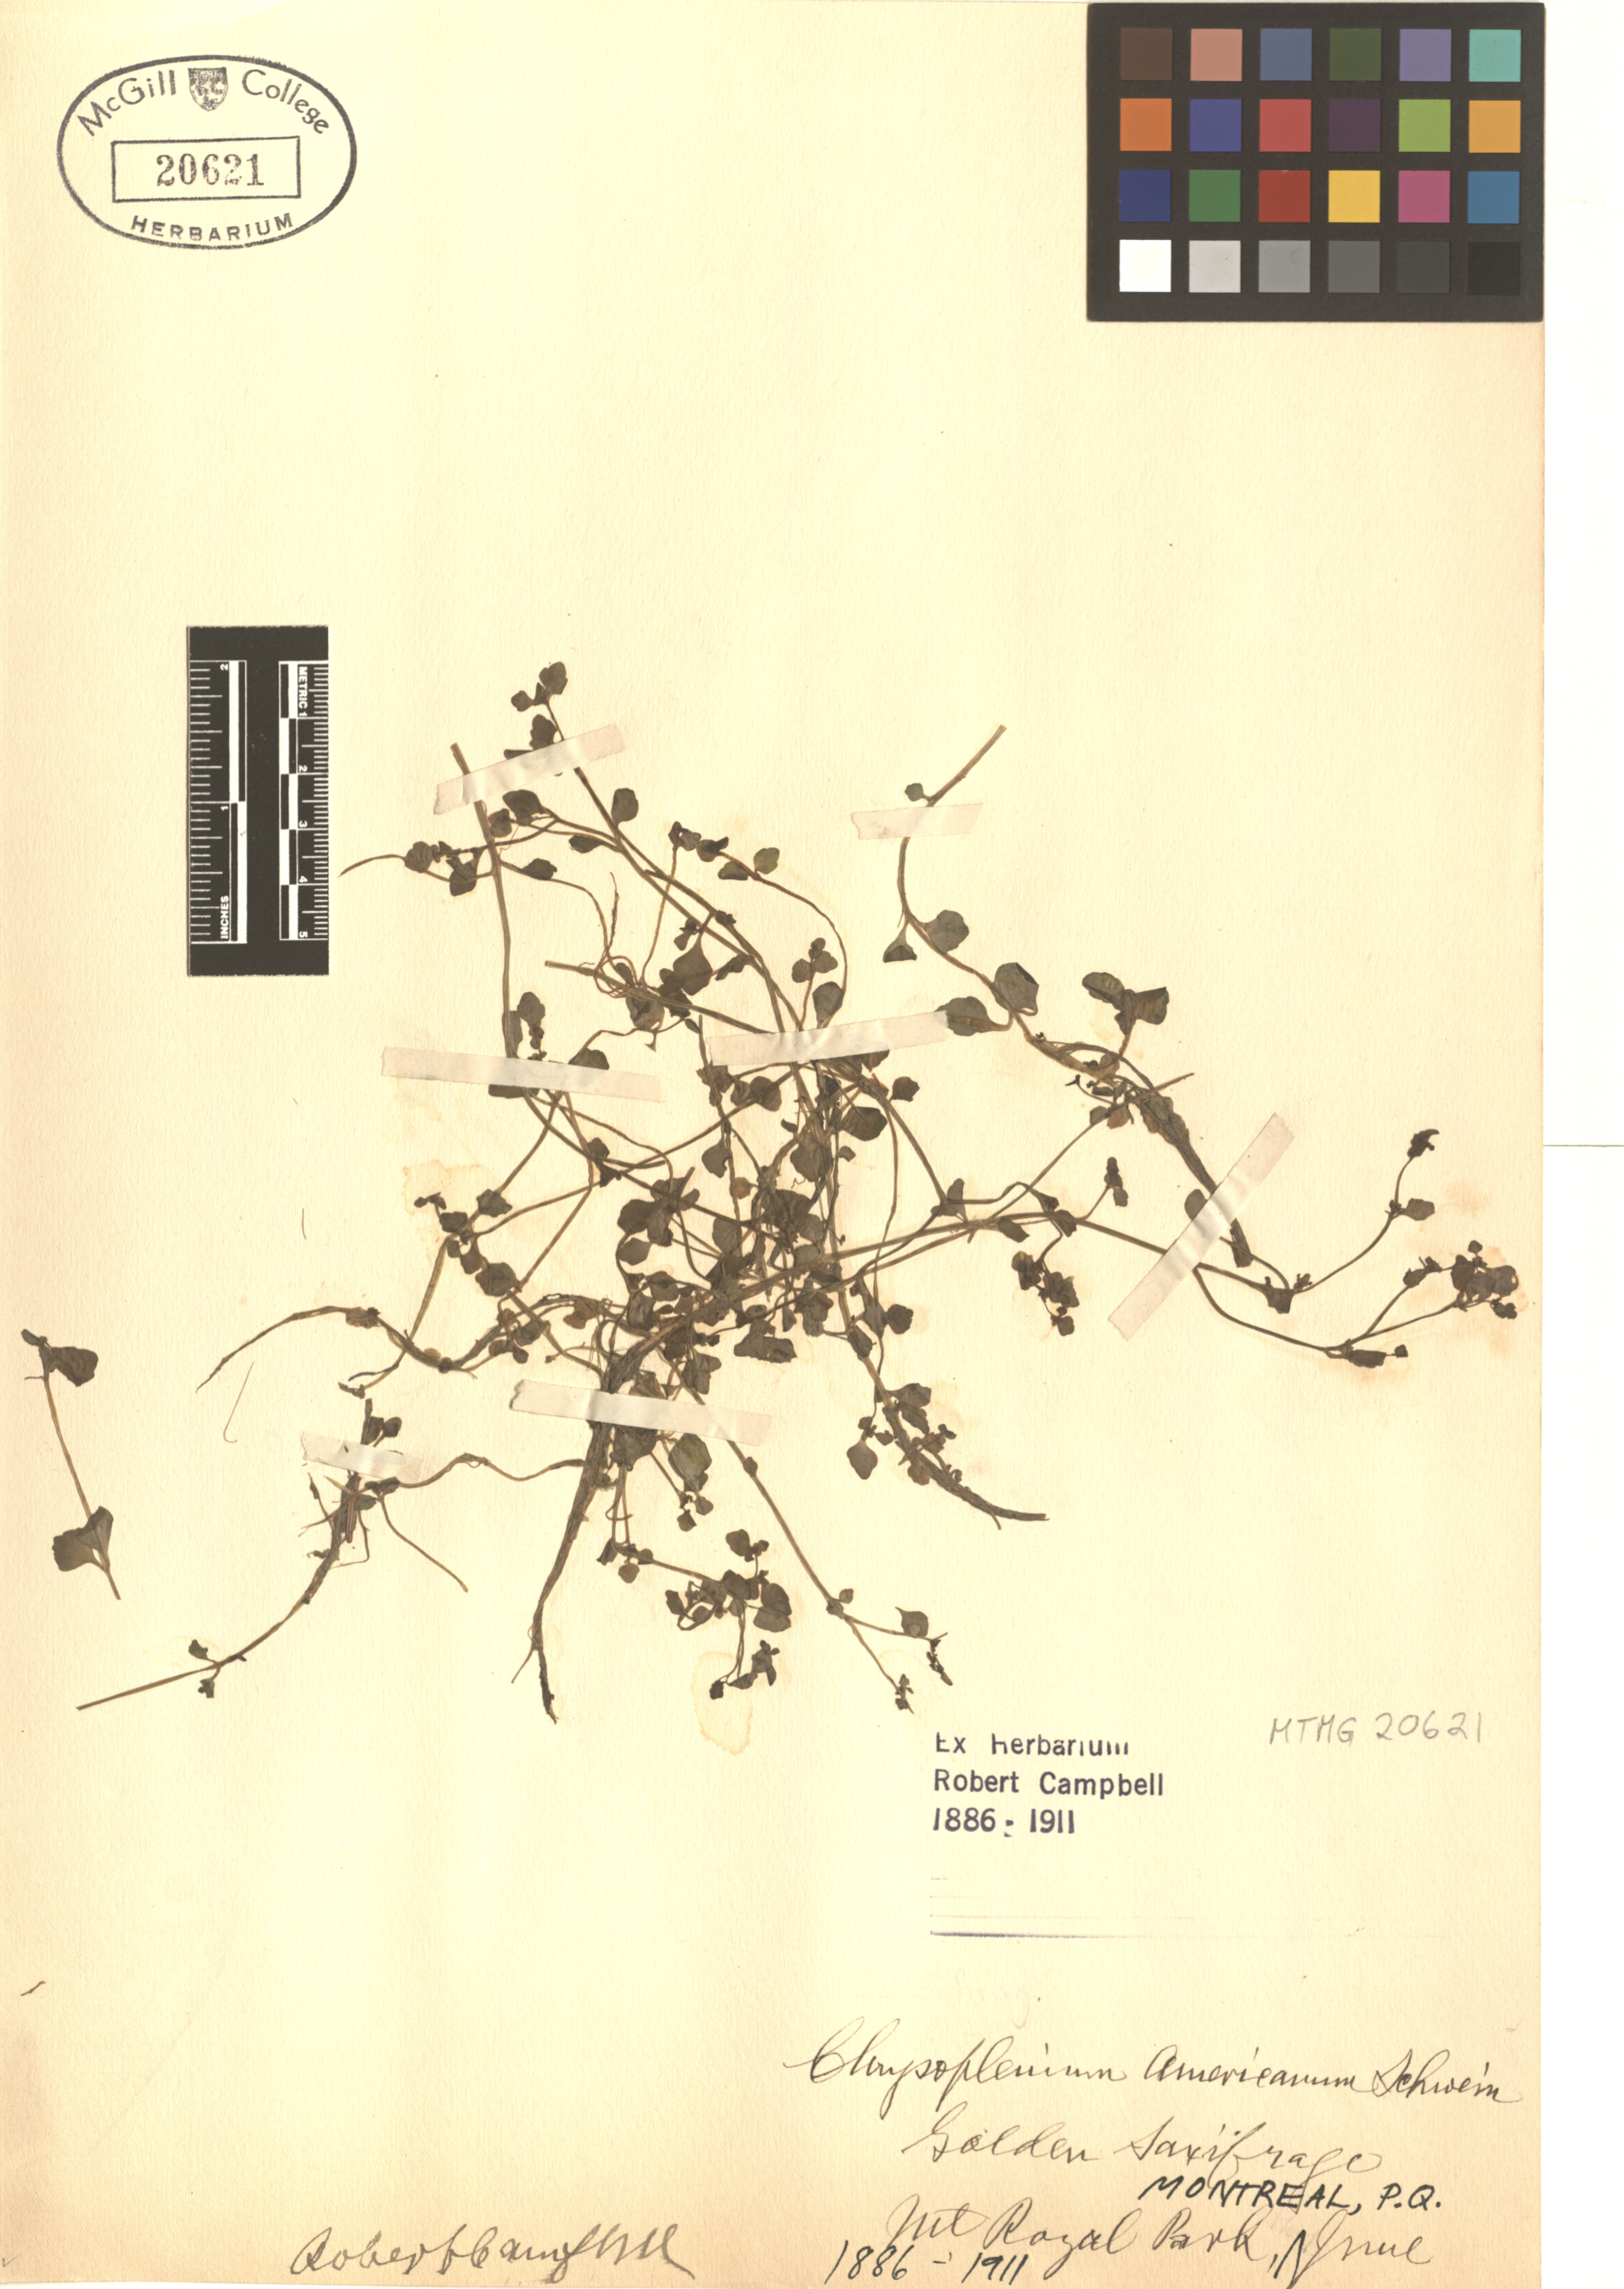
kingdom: Plantae
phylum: Tracheophyta
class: Magnoliopsida
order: Saxifragales
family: Saxifragaceae
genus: Chrysosplenium
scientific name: Chrysosplenium americanum
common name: American golden-saxifrage
